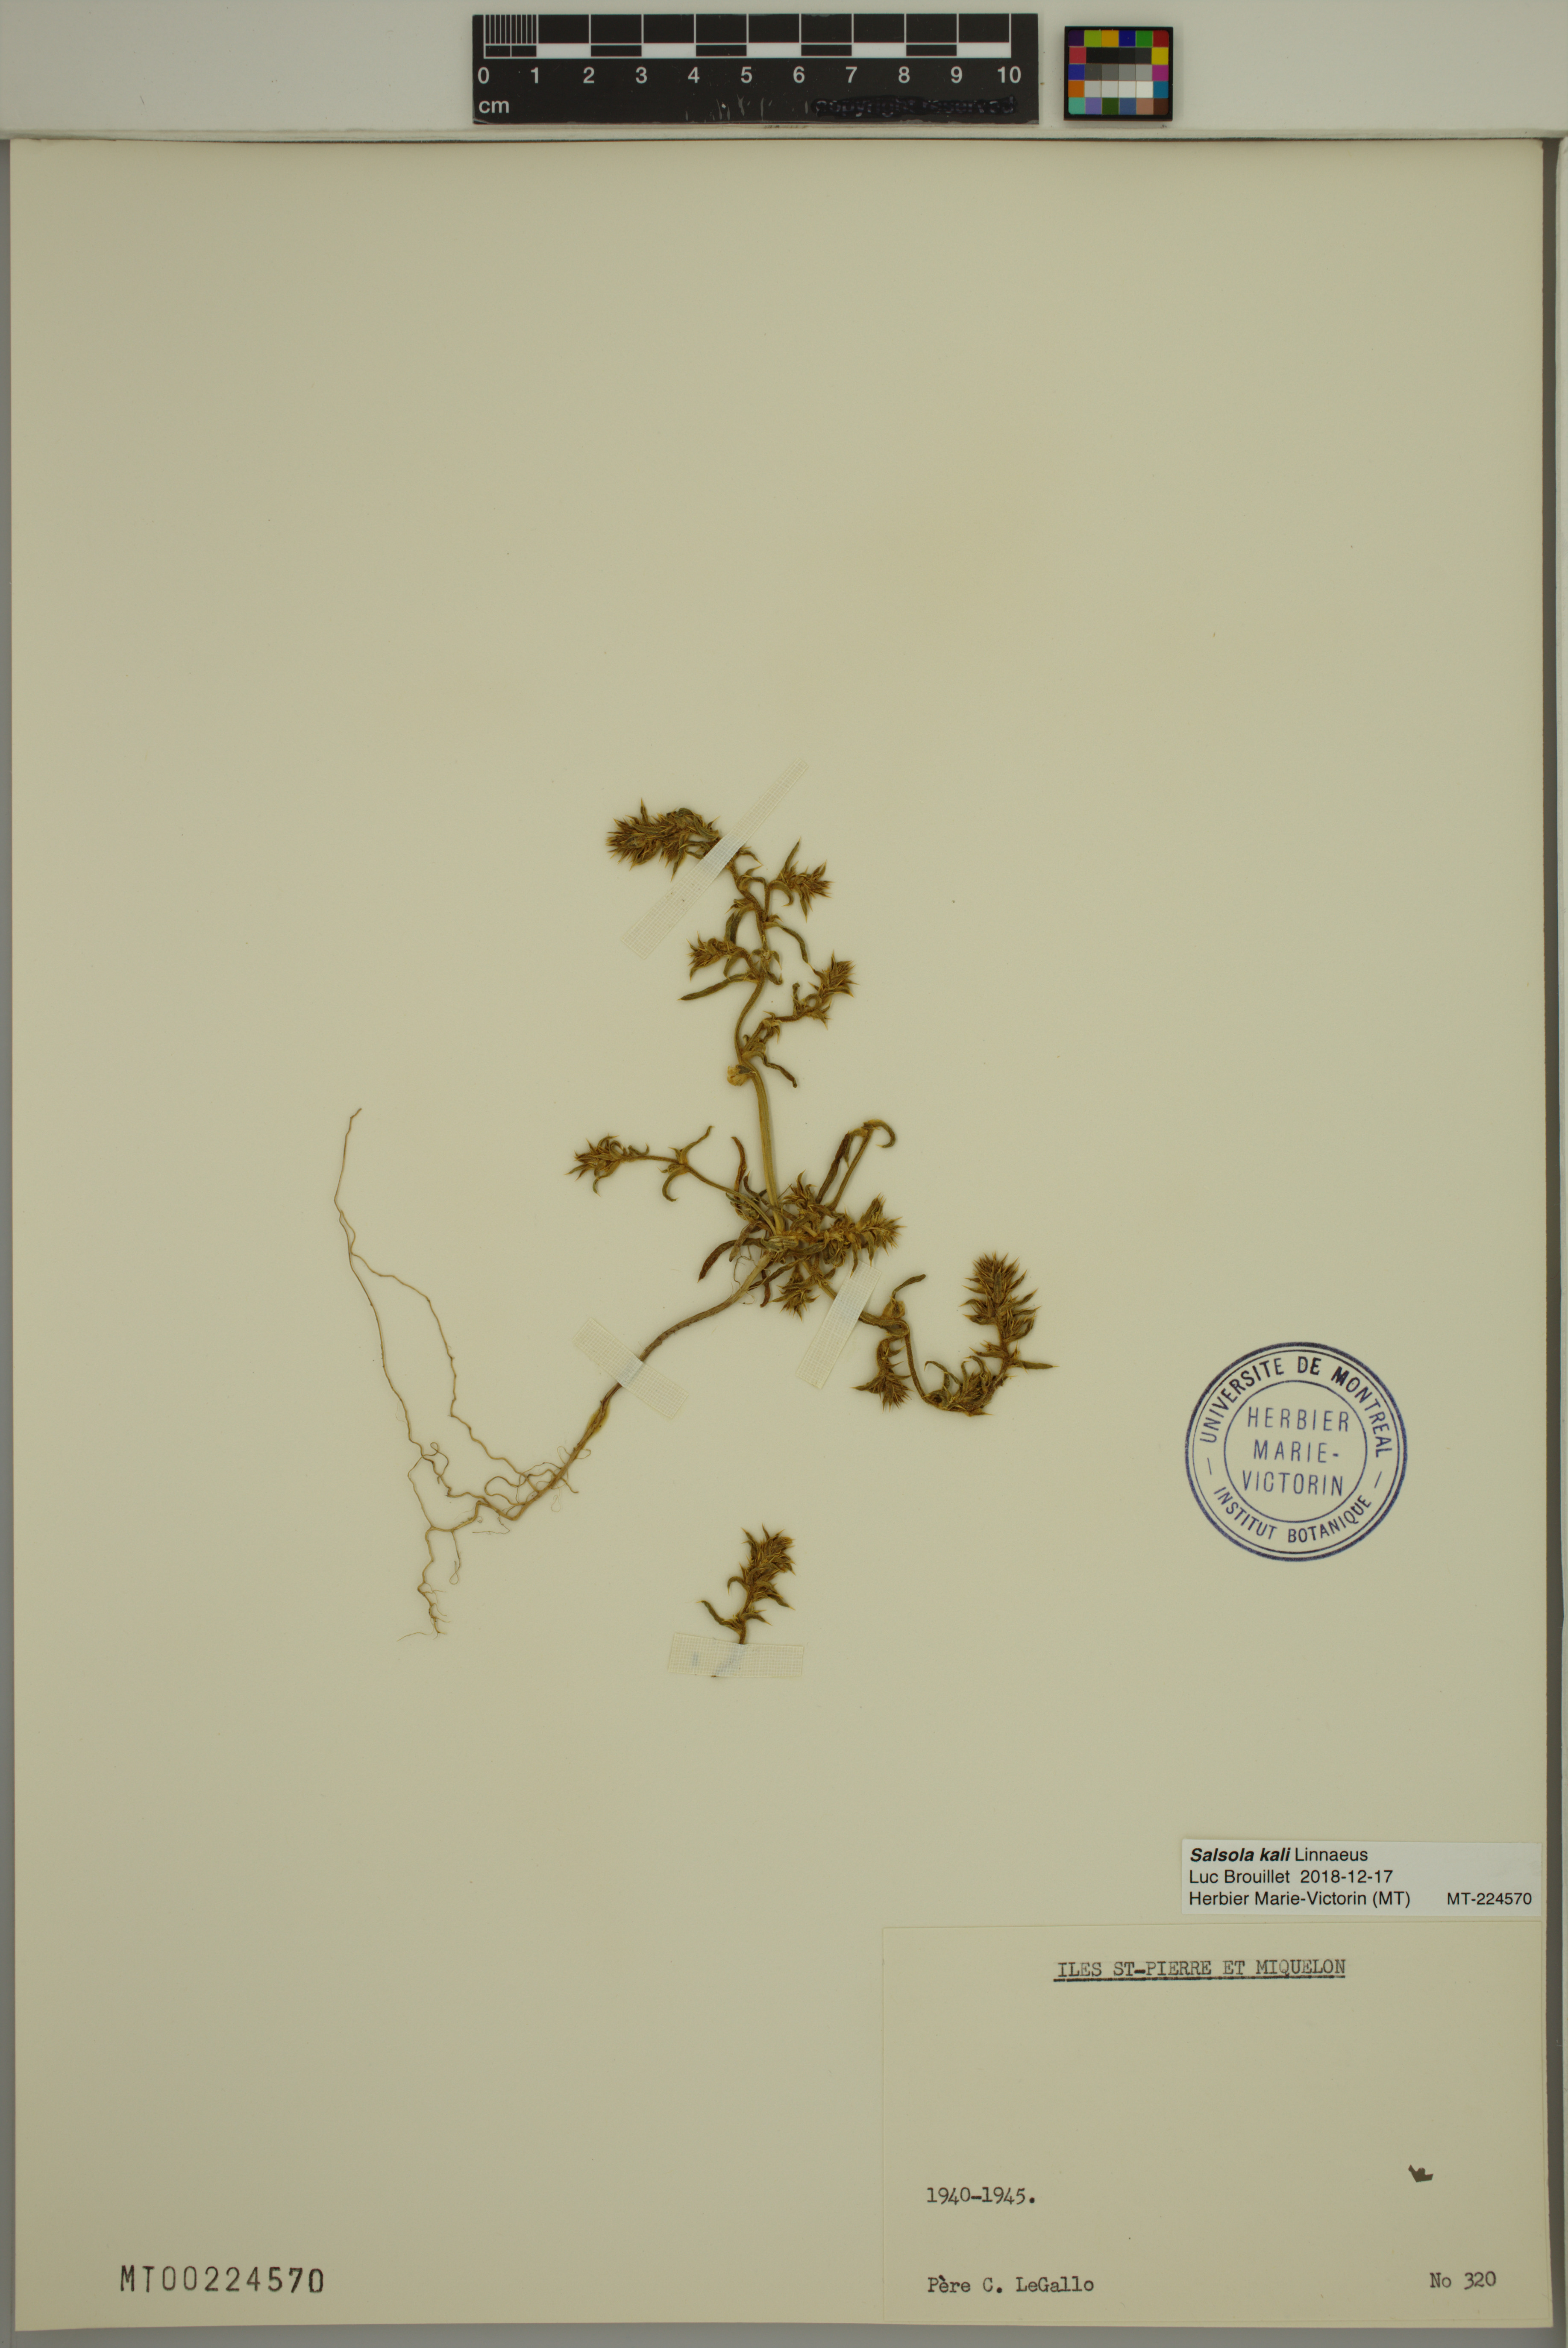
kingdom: Plantae
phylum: Tracheophyta
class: Magnoliopsida
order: Caryophyllales
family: Amaranthaceae
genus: Salsola
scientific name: Salsola kali
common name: Saltwort
